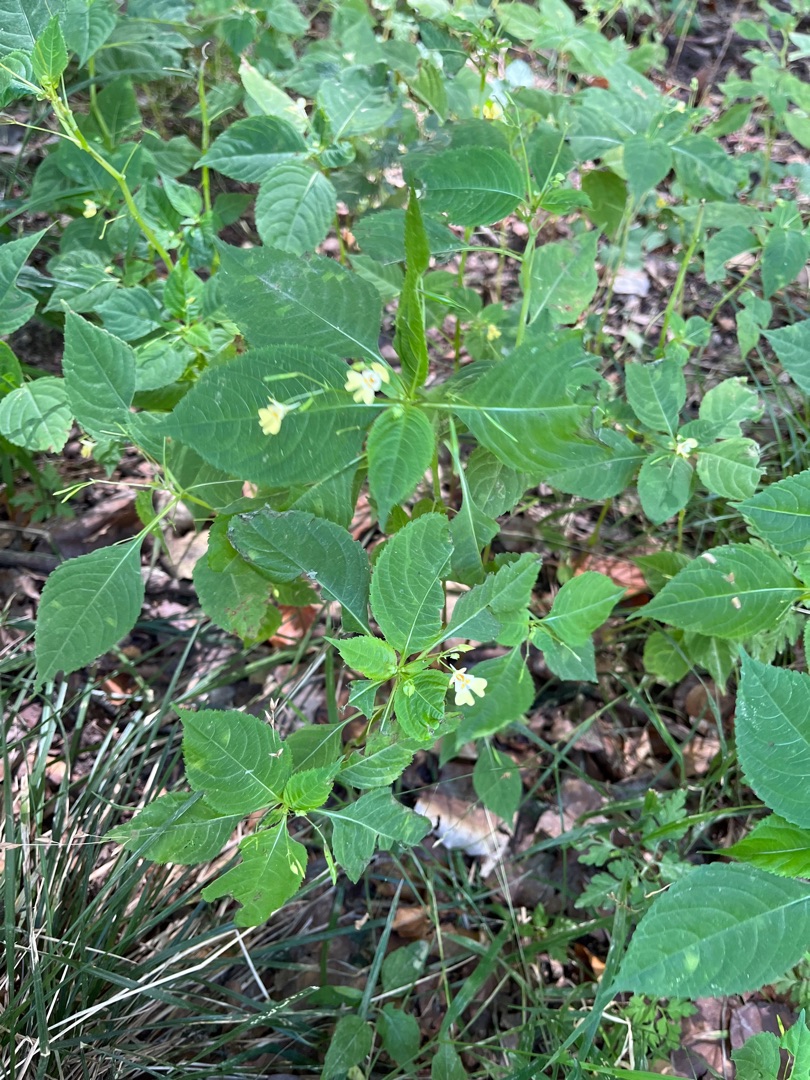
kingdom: Plantae
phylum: Tracheophyta
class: Magnoliopsida
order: Ericales
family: Balsaminaceae
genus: Impatiens
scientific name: Impatiens parviflora
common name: Småblomstret balsamin
